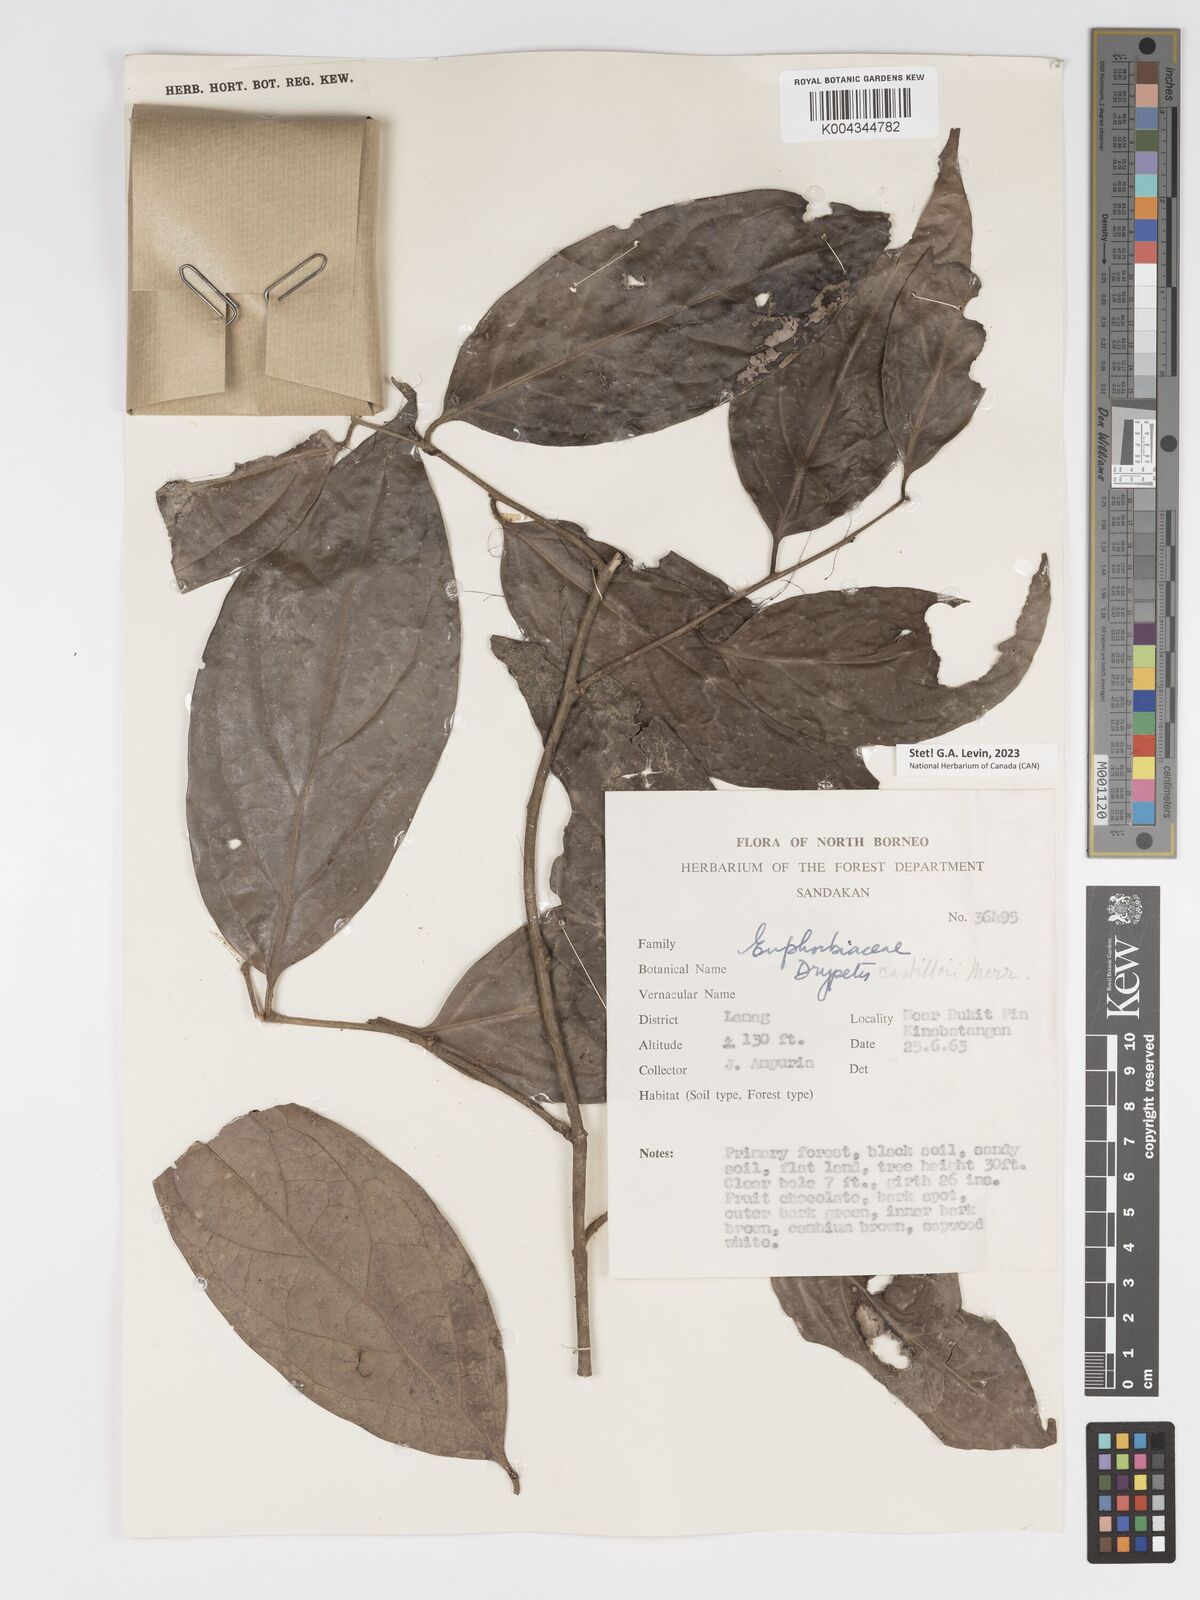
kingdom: Plantae
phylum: Tracheophyta
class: Magnoliopsida
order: Malpighiales
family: Putranjivaceae
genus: Drypetes
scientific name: Drypetes castilloi
